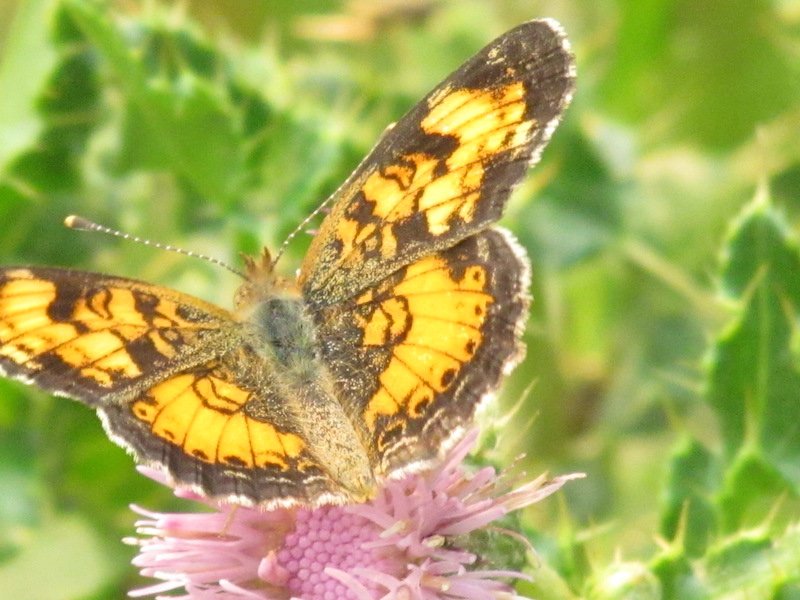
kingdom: Animalia
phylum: Arthropoda
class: Insecta
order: Lepidoptera
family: Nymphalidae
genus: Phyciodes
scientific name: Phyciodes tharos
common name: Northern Crescent
